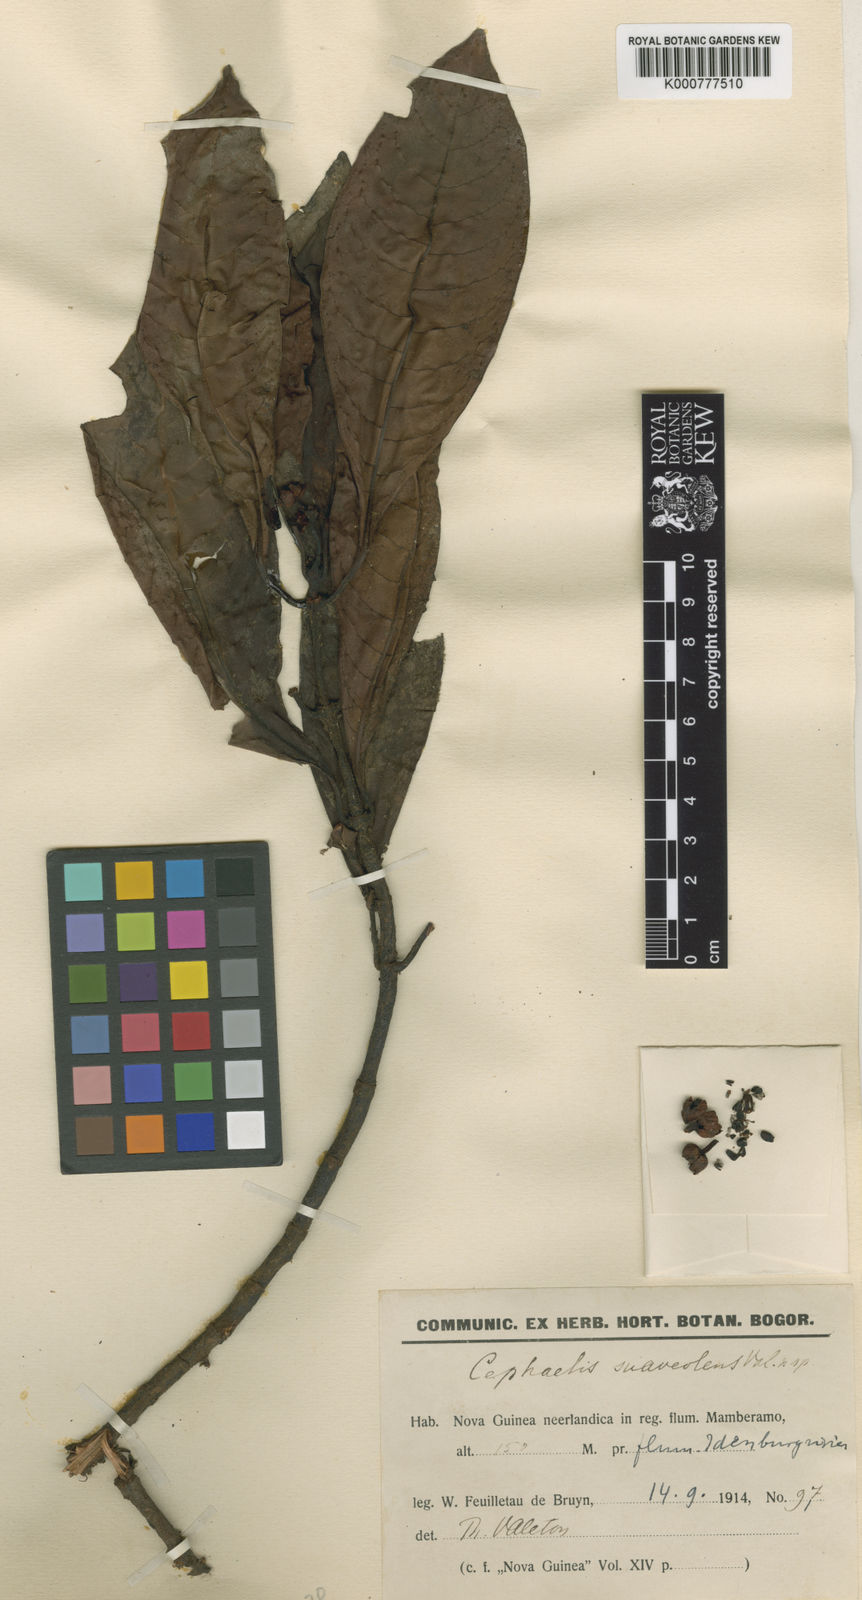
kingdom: Plantae
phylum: Tracheophyta
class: Magnoliopsida
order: Gentianales
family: Rubiaceae
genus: Psychotria
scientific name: Psychotria coptosperma
